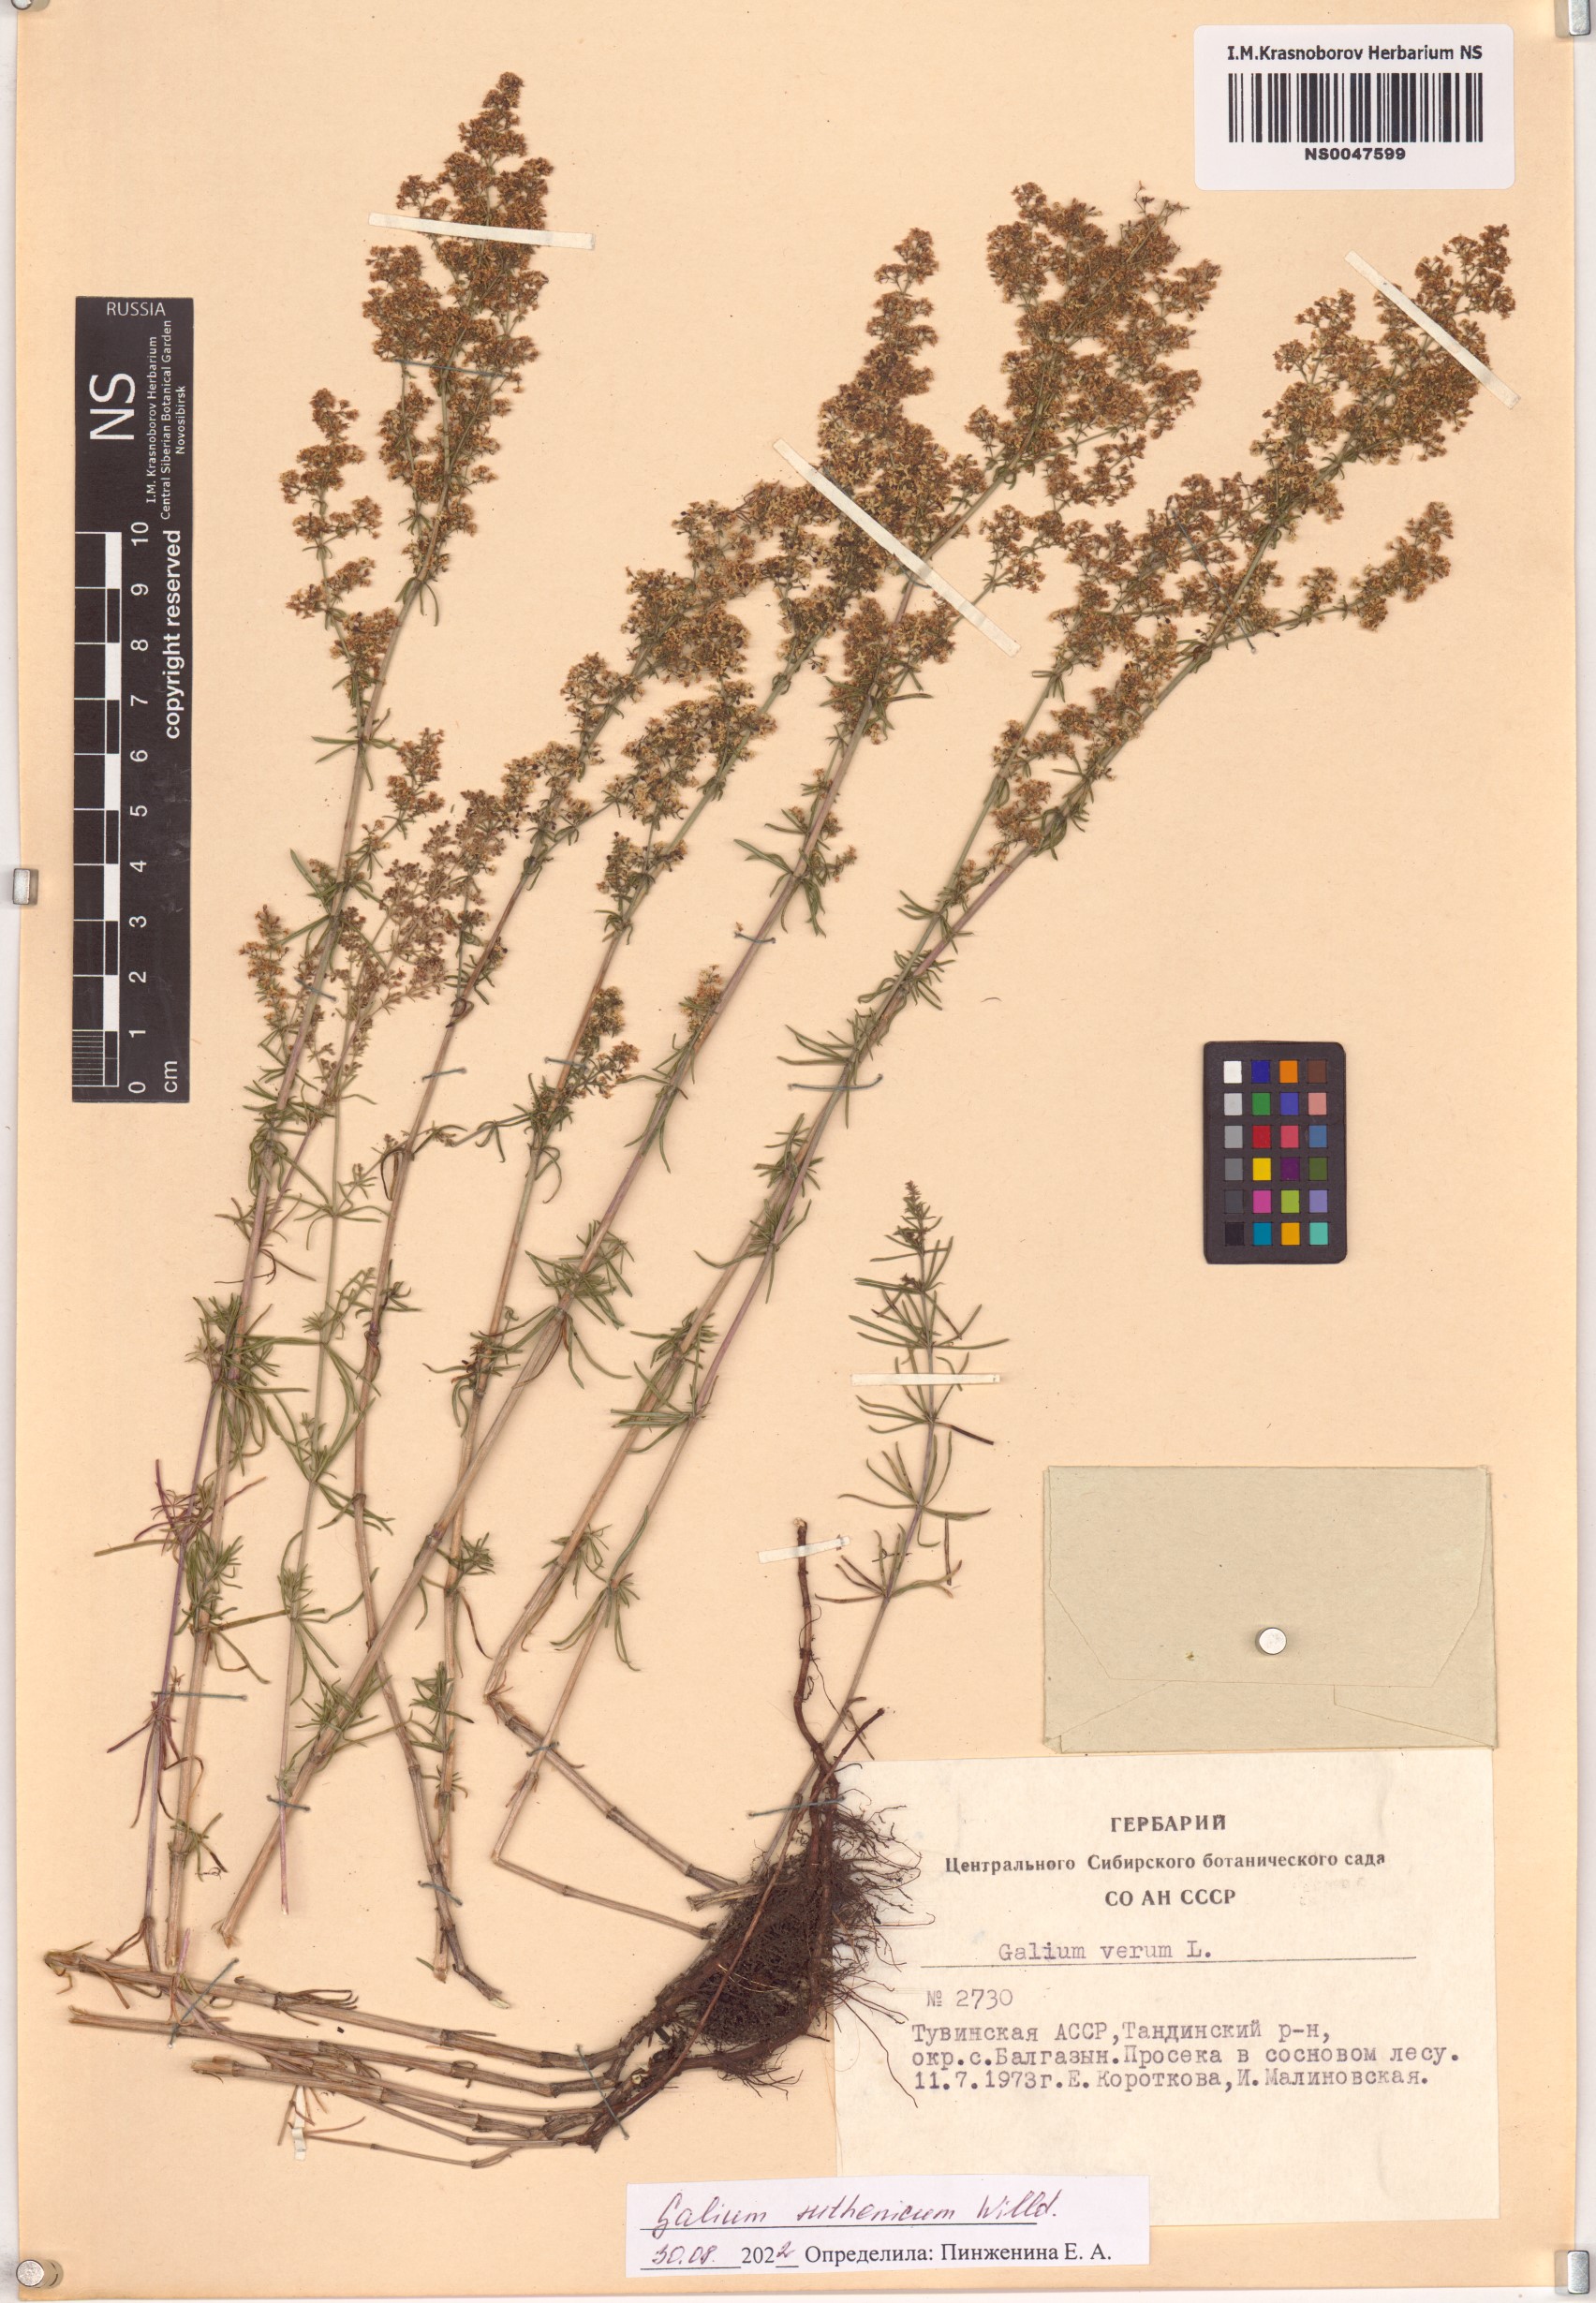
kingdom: Plantae
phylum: Tracheophyta
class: Magnoliopsida
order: Gentianales
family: Rubiaceae
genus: Galium
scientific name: Galium verum
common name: Lady's bedstraw
